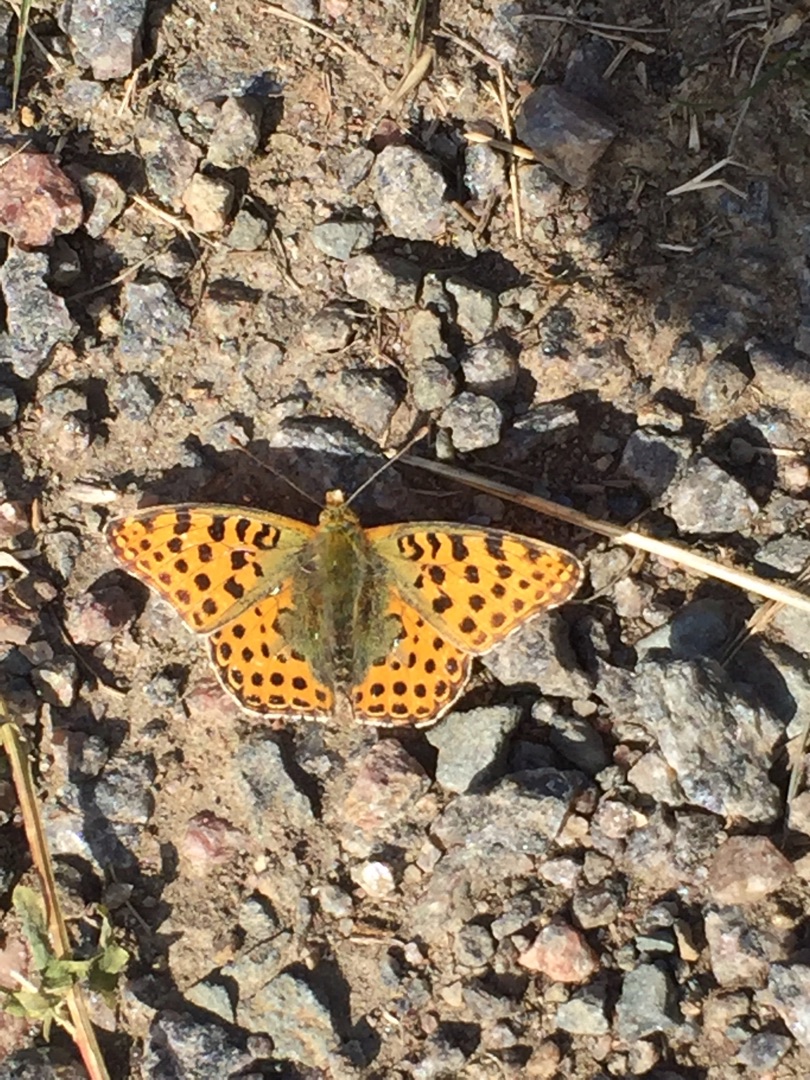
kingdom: Animalia
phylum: Arthropoda
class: Insecta
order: Lepidoptera
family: Nymphalidae
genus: Issoria
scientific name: Issoria lathonia
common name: Storplettet perlemorsommerfugl
